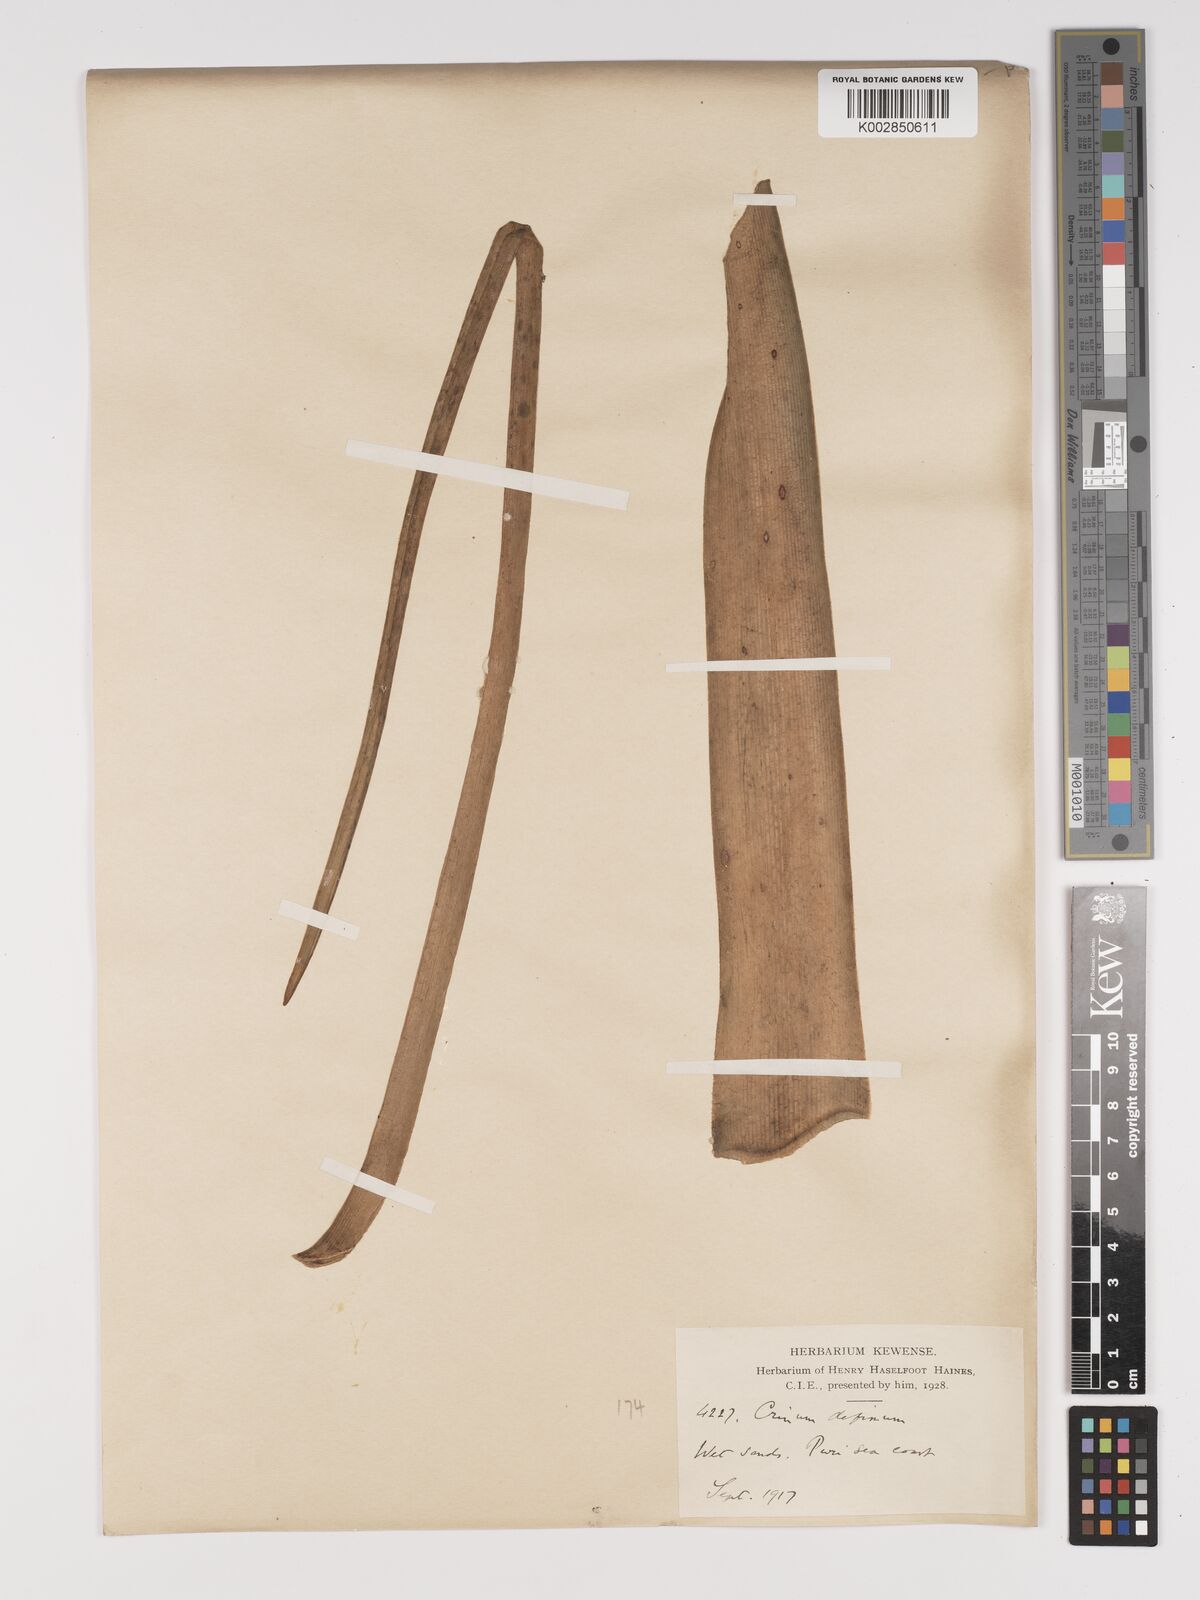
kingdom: Plantae
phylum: Tracheophyta
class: Liliopsida
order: Asparagales
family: Amaryllidaceae
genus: Crinum
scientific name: Crinum defixum
